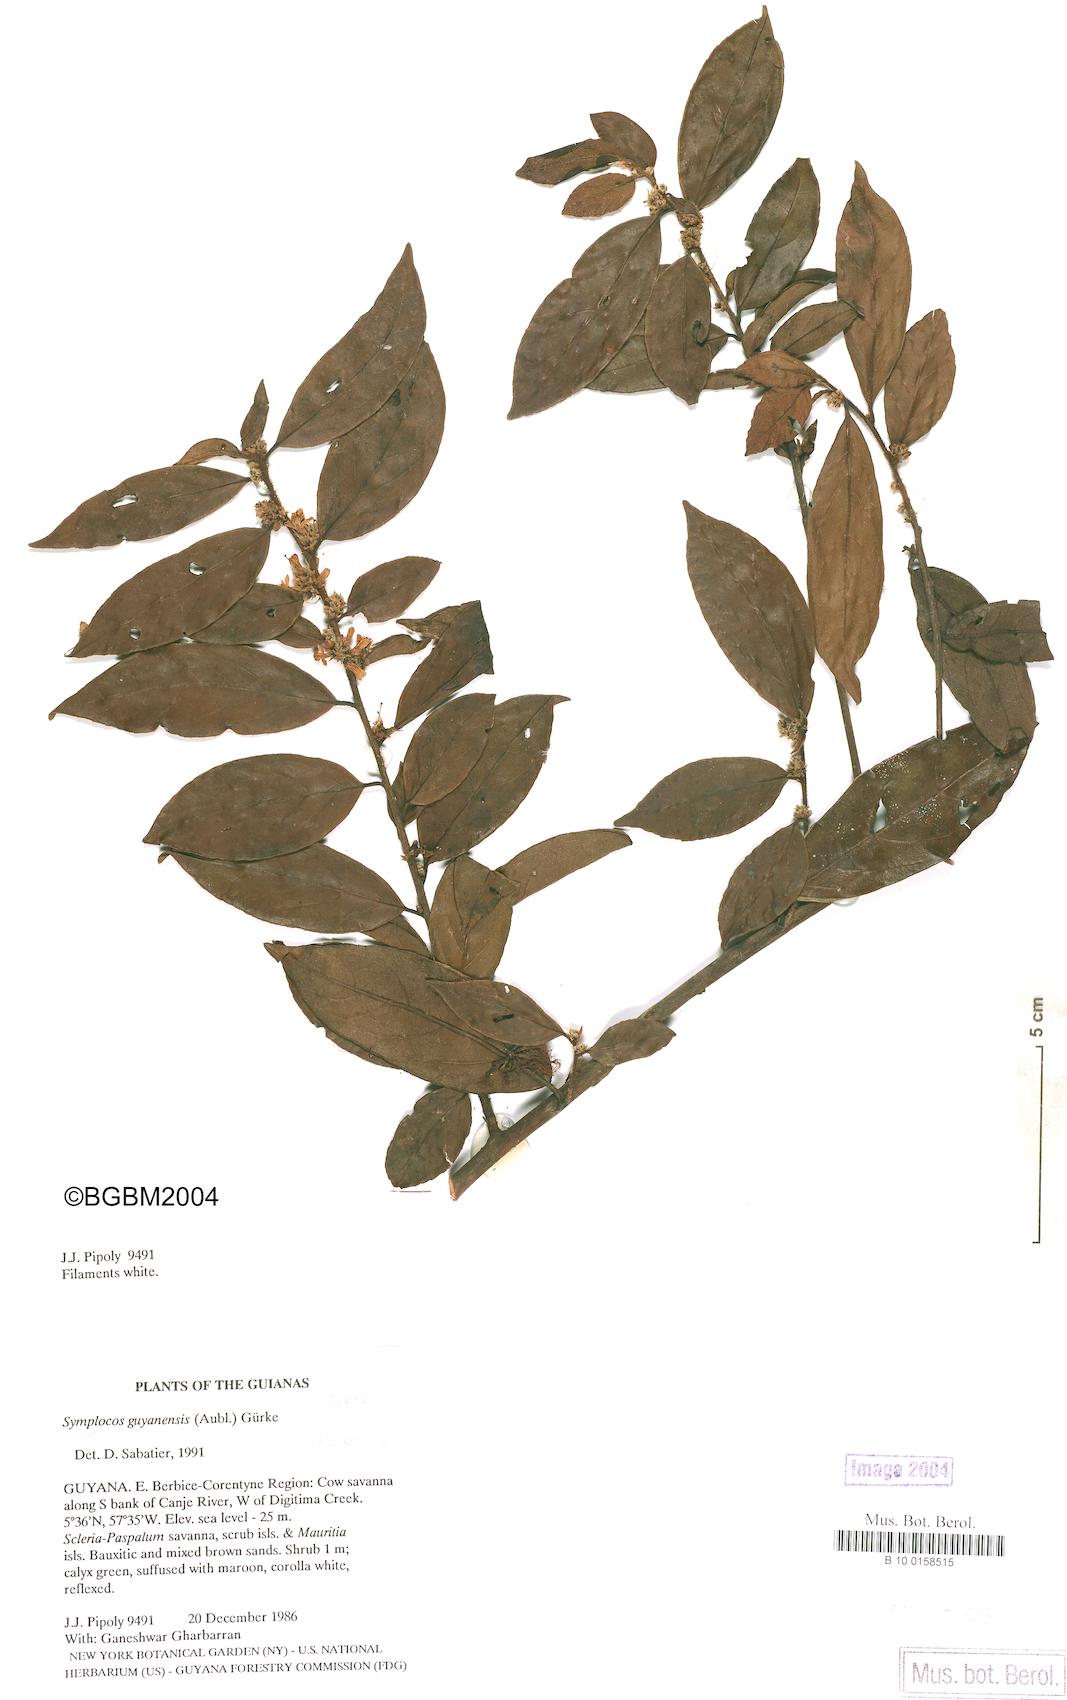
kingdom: Plantae
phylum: Tracheophyta
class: Magnoliopsida
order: Ericales
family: Symplocaceae
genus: Symplocos
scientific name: Symplocos guianensis
